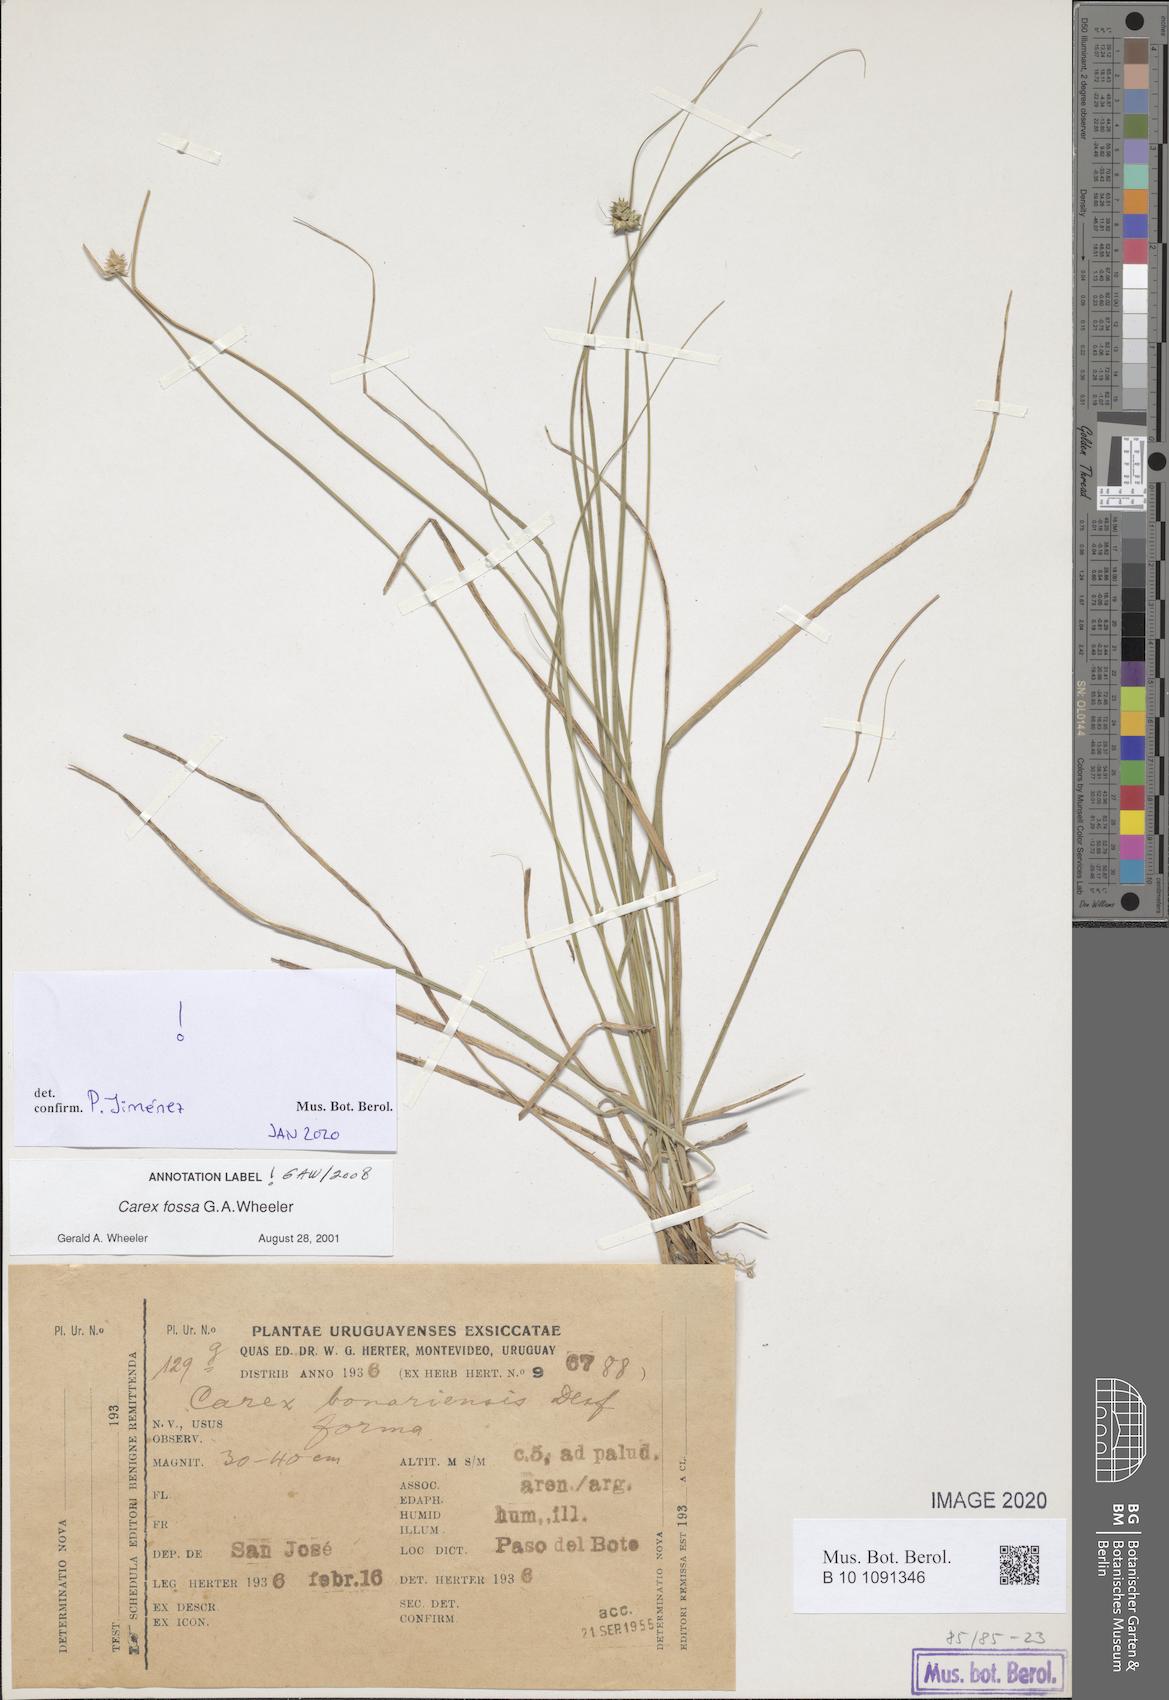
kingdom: Plantae
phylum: Tracheophyta
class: Liliopsida
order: Poales
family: Cyperaceae
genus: Carex
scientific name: Carex fossa
